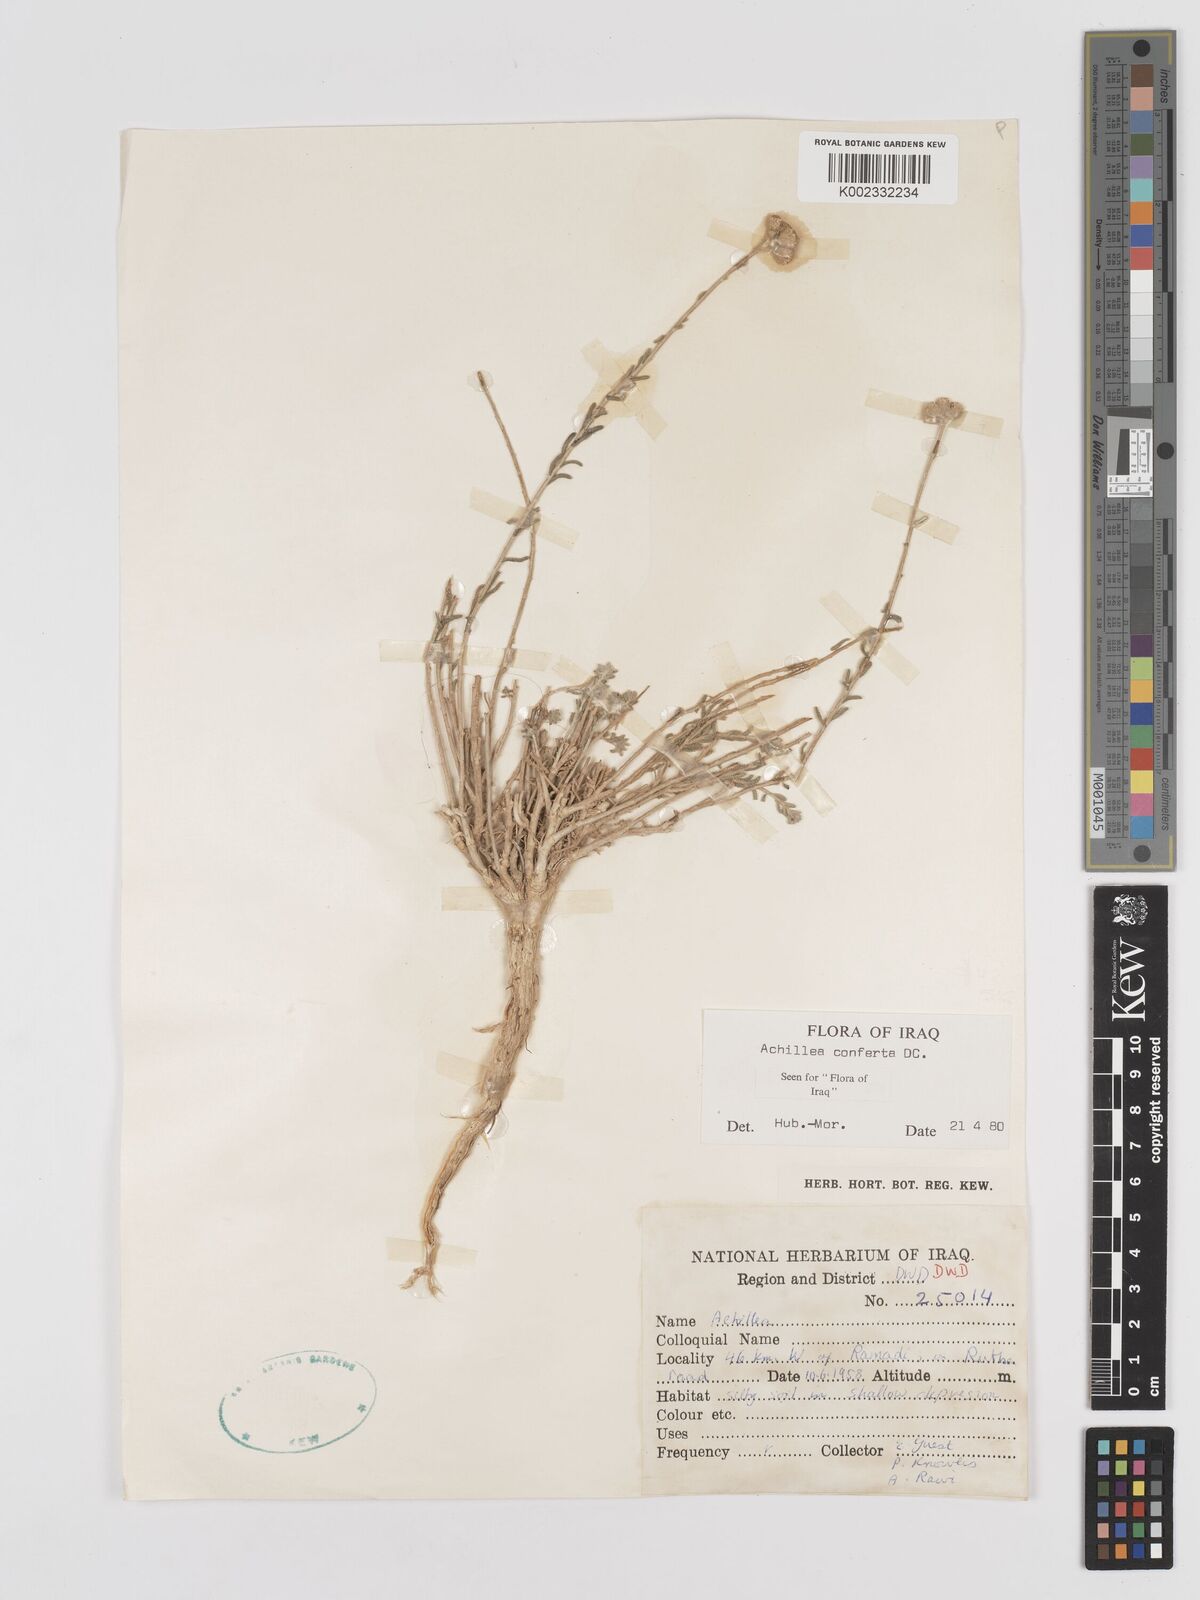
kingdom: Plantae
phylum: Tracheophyta
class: Magnoliopsida
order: Asterales
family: Asteraceae
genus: Achillea
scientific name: Achillea conferta
